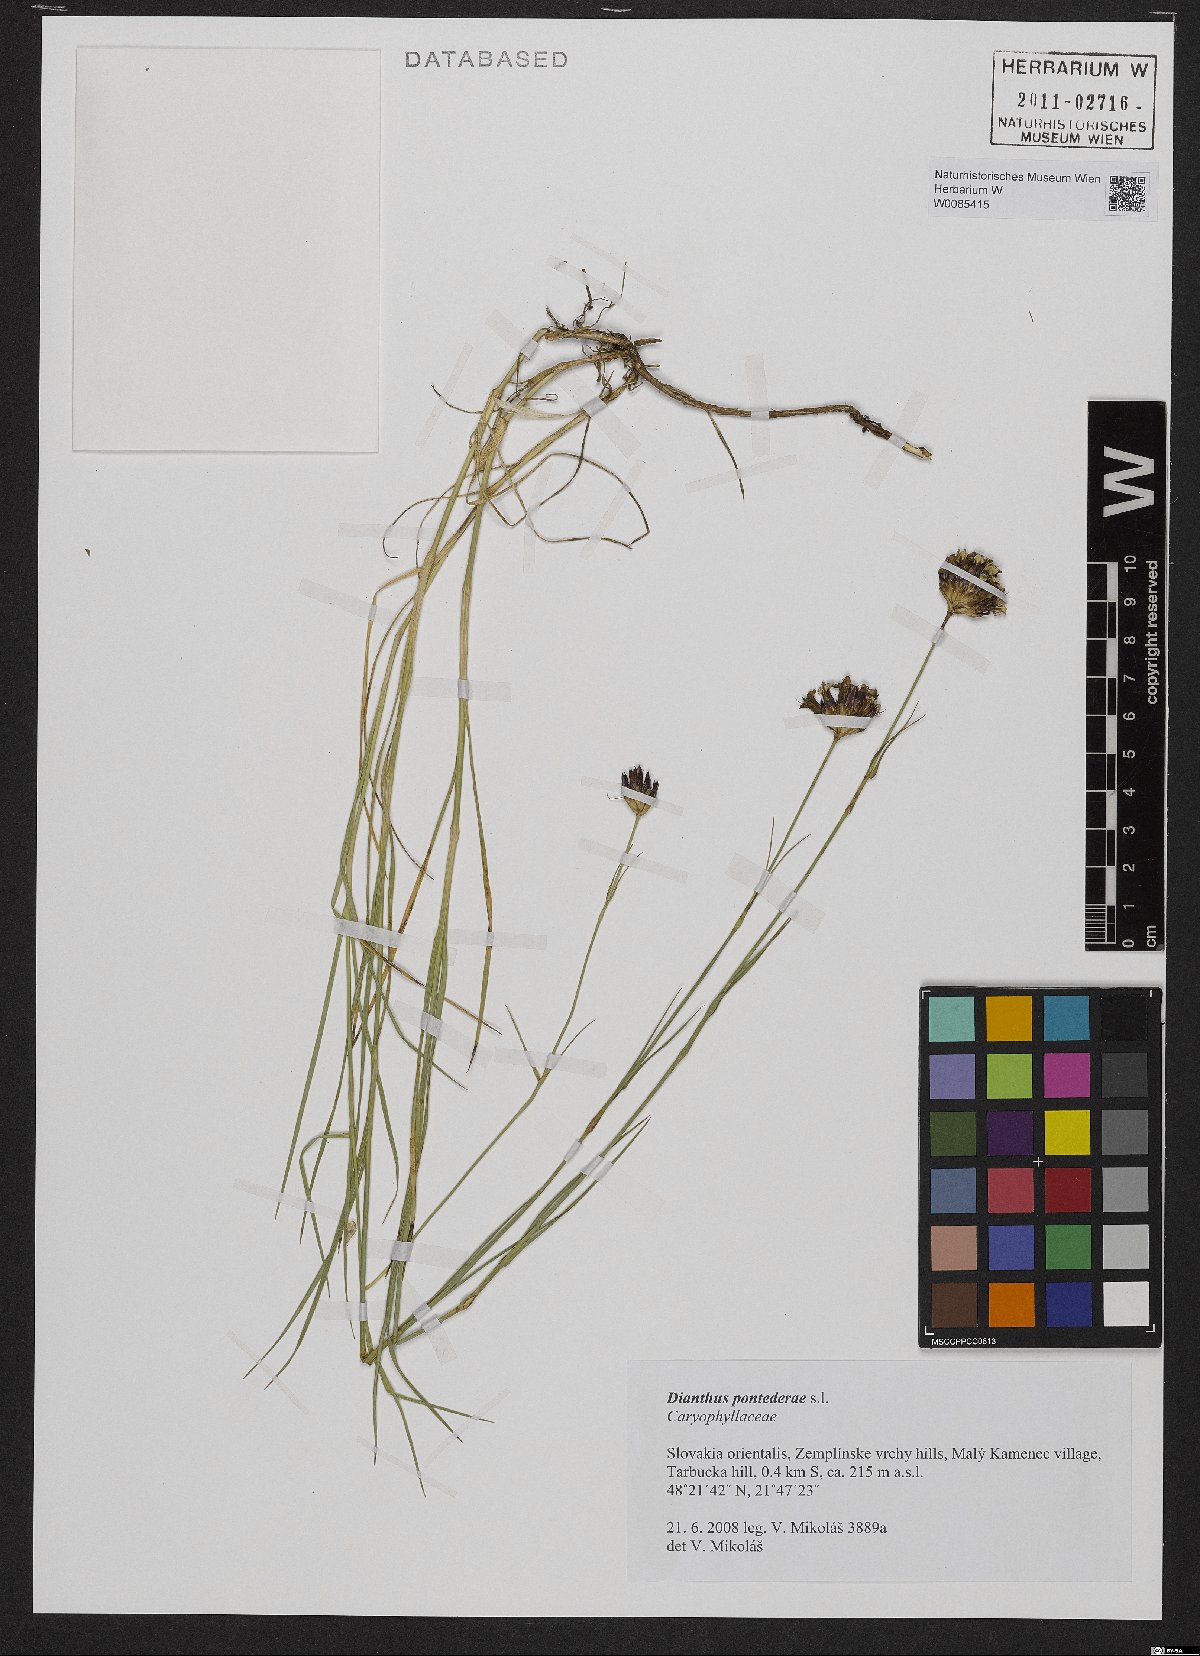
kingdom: Plantae
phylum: Tracheophyta
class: Magnoliopsida
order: Caryophyllales
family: Caryophyllaceae
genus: Dianthus
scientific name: Dianthus pontederae
